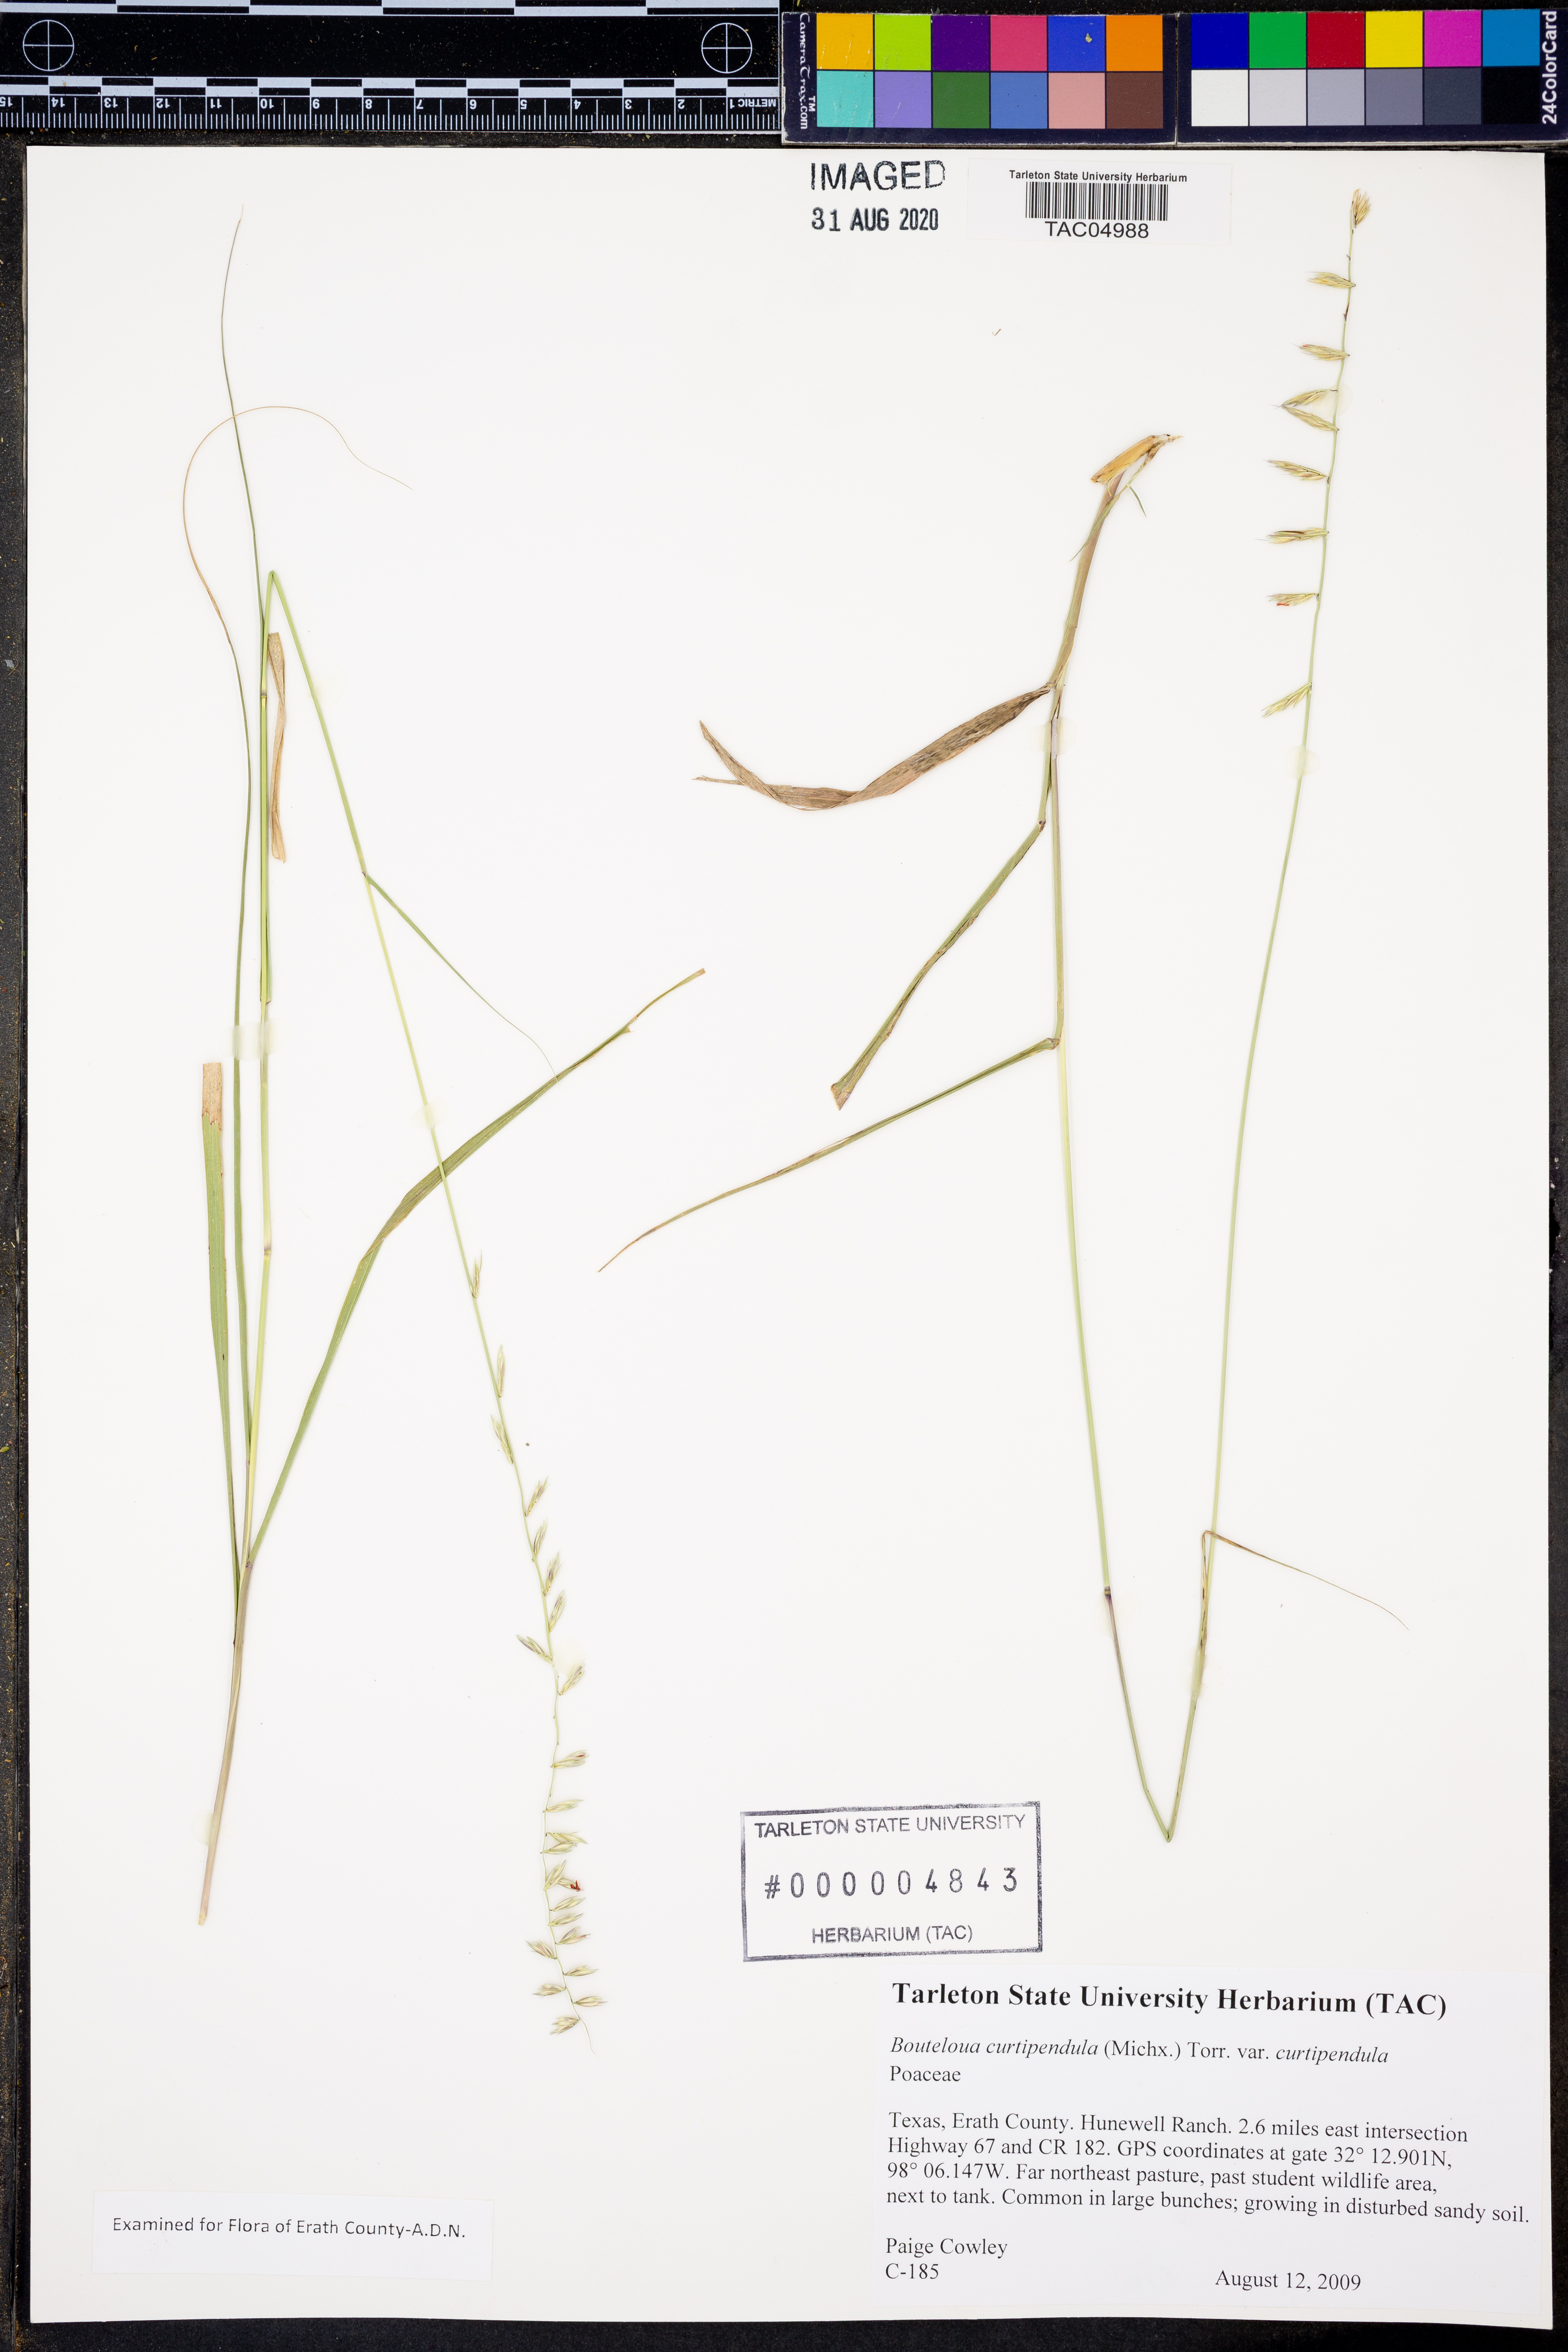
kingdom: Plantae
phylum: Tracheophyta
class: Liliopsida
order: Poales
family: Poaceae
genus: Bouteloua
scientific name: Bouteloua curtipendula
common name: Side-oats grama
